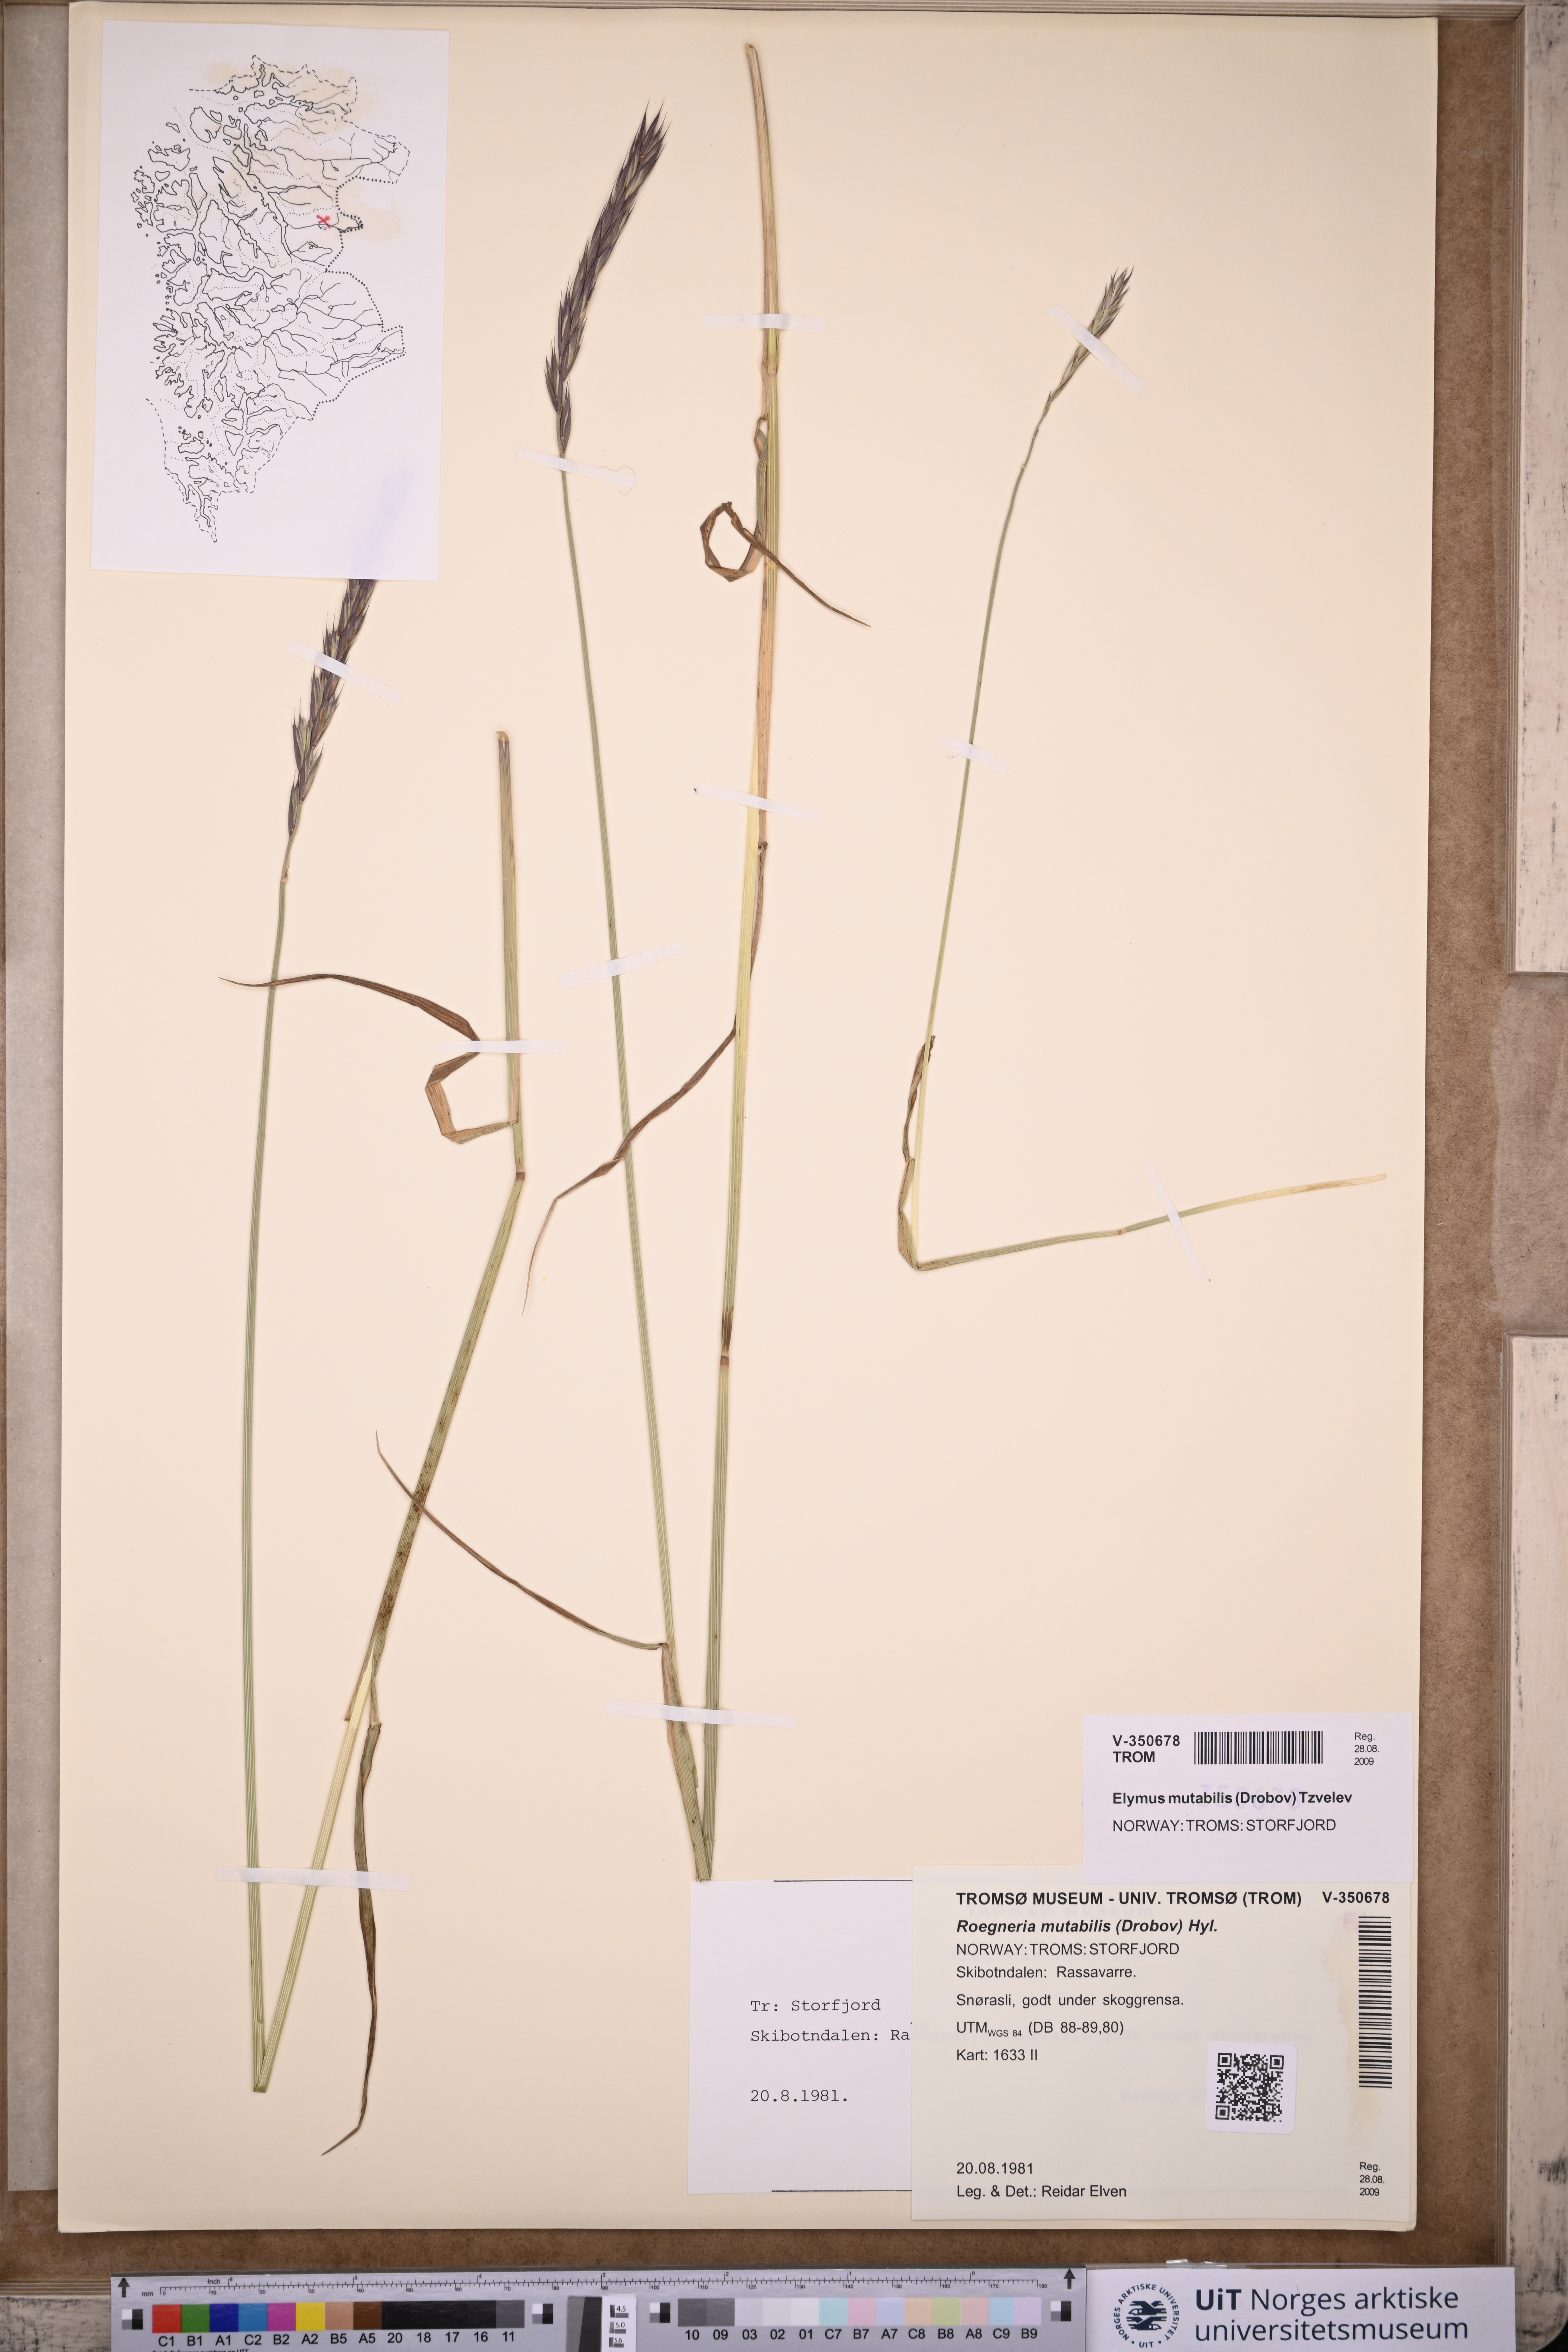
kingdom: Plantae
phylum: Tracheophyta
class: Liliopsida
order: Poales
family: Poaceae
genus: Elymus
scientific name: Elymus mutabilis
